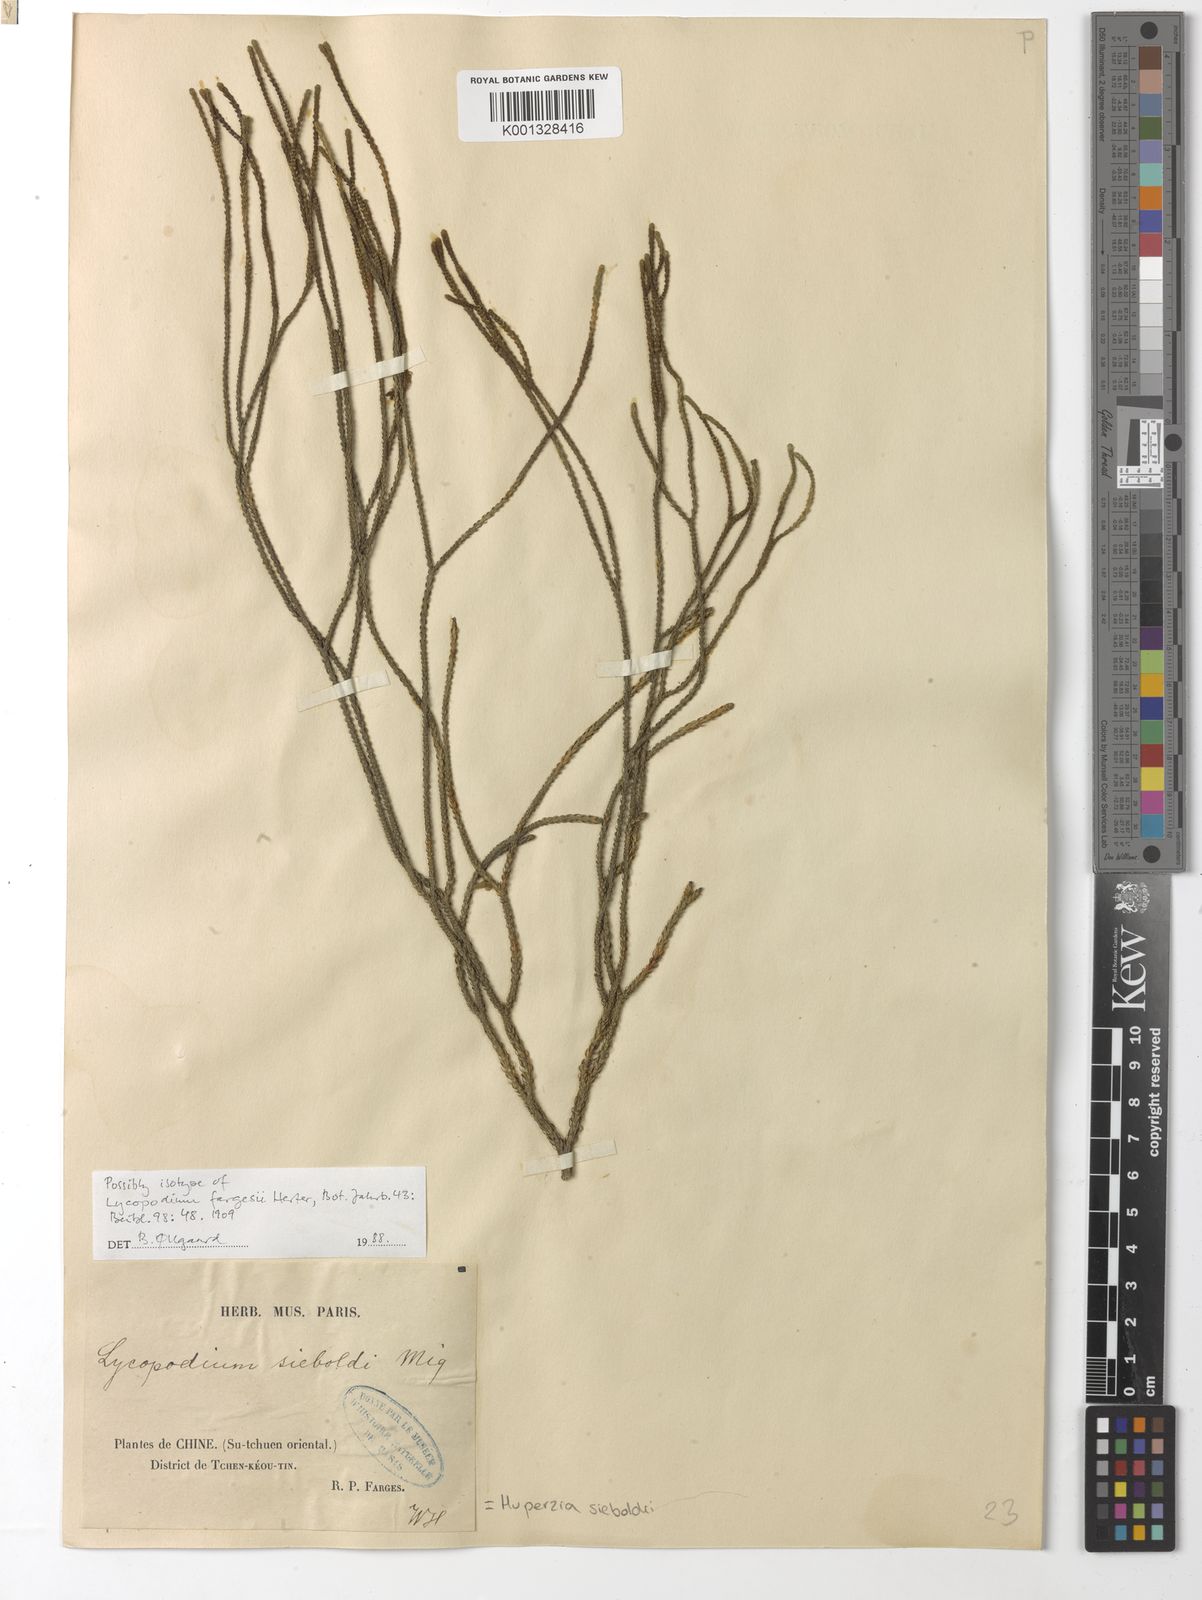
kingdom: Plantae
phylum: Tracheophyta
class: Lycopodiopsida
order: Lycopodiales
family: Lycopodiaceae
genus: Phlegmariurus
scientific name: Phlegmariurus sieboldii
